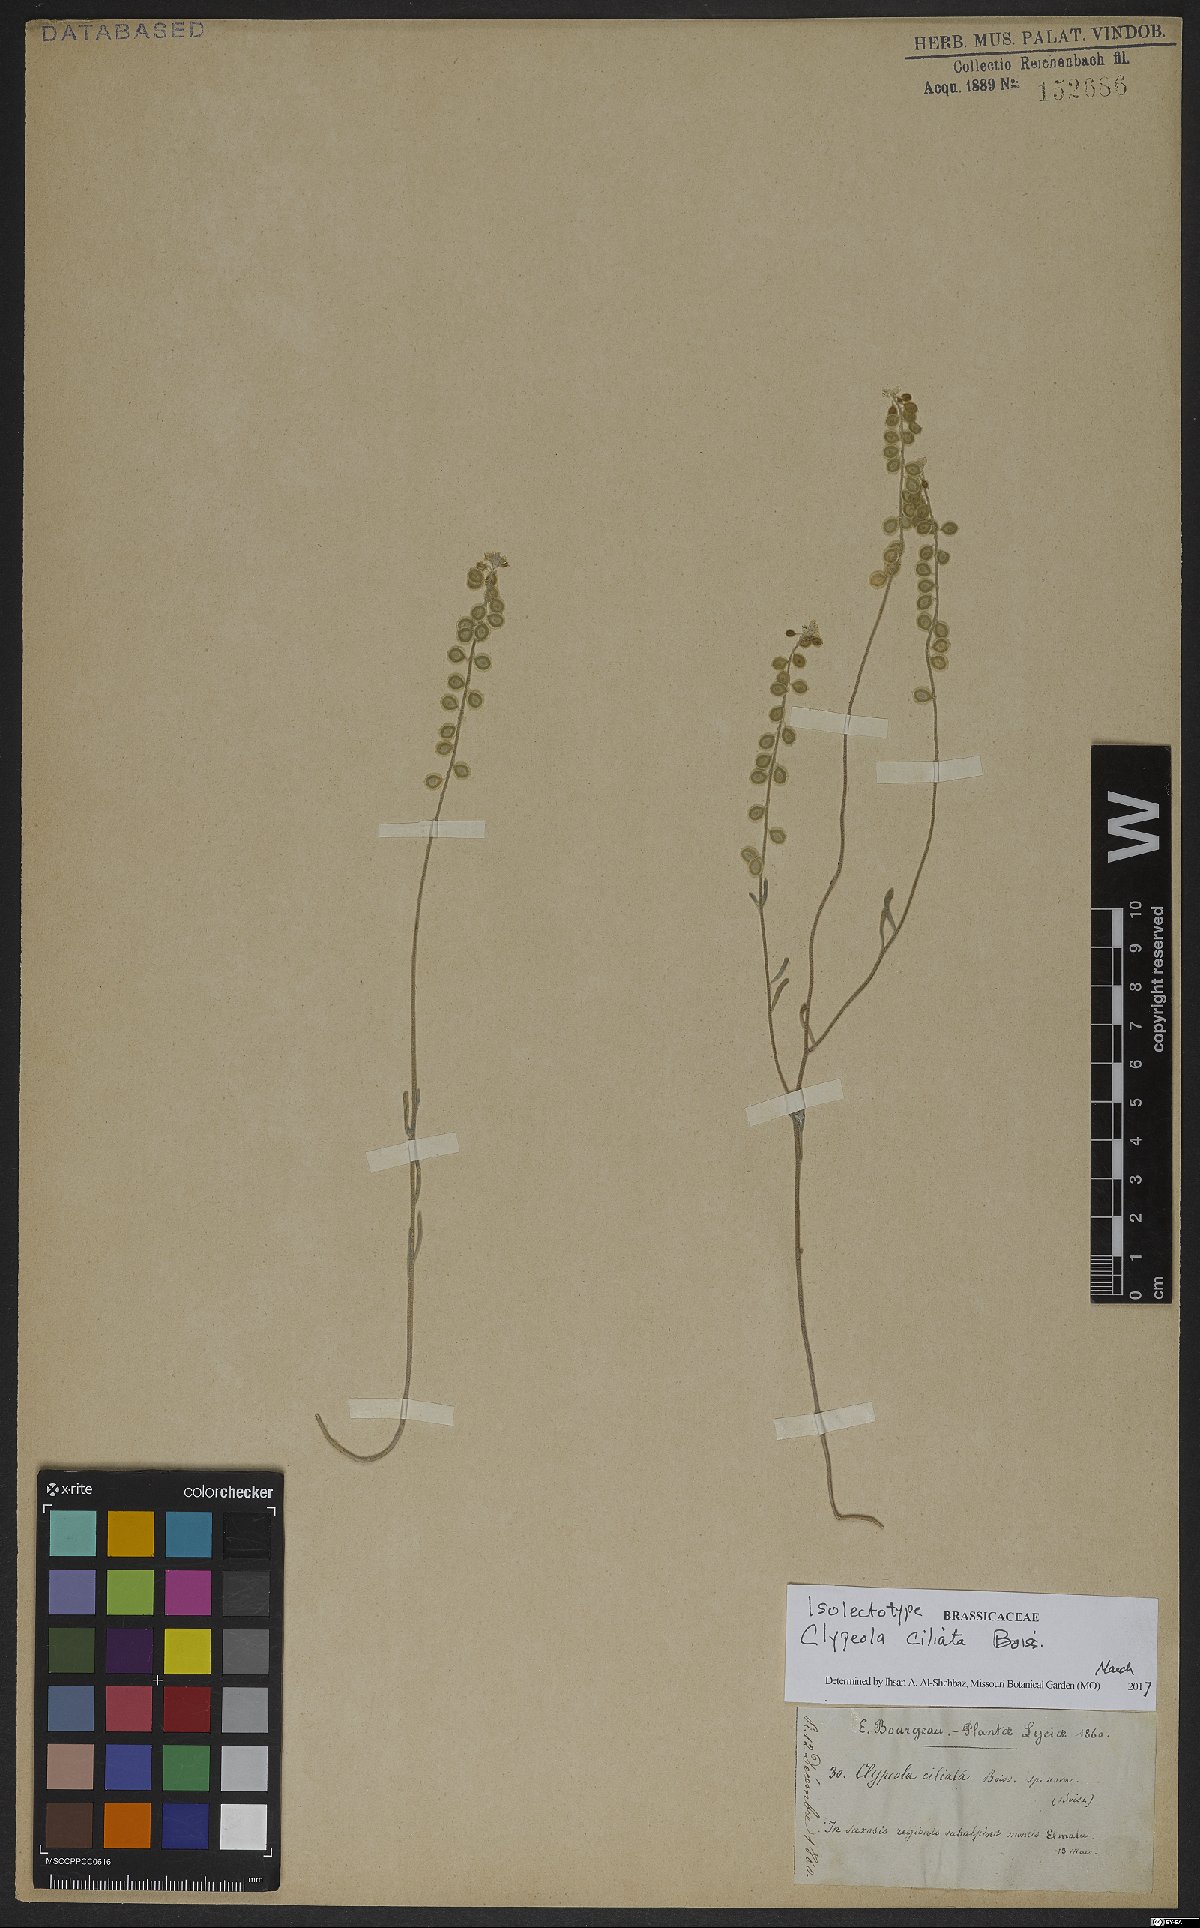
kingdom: Plantae
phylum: Tracheophyta
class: Magnoliopsida
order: Brassicales
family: Brassicaceae
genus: Clypeola
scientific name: Clypeola ciliata
